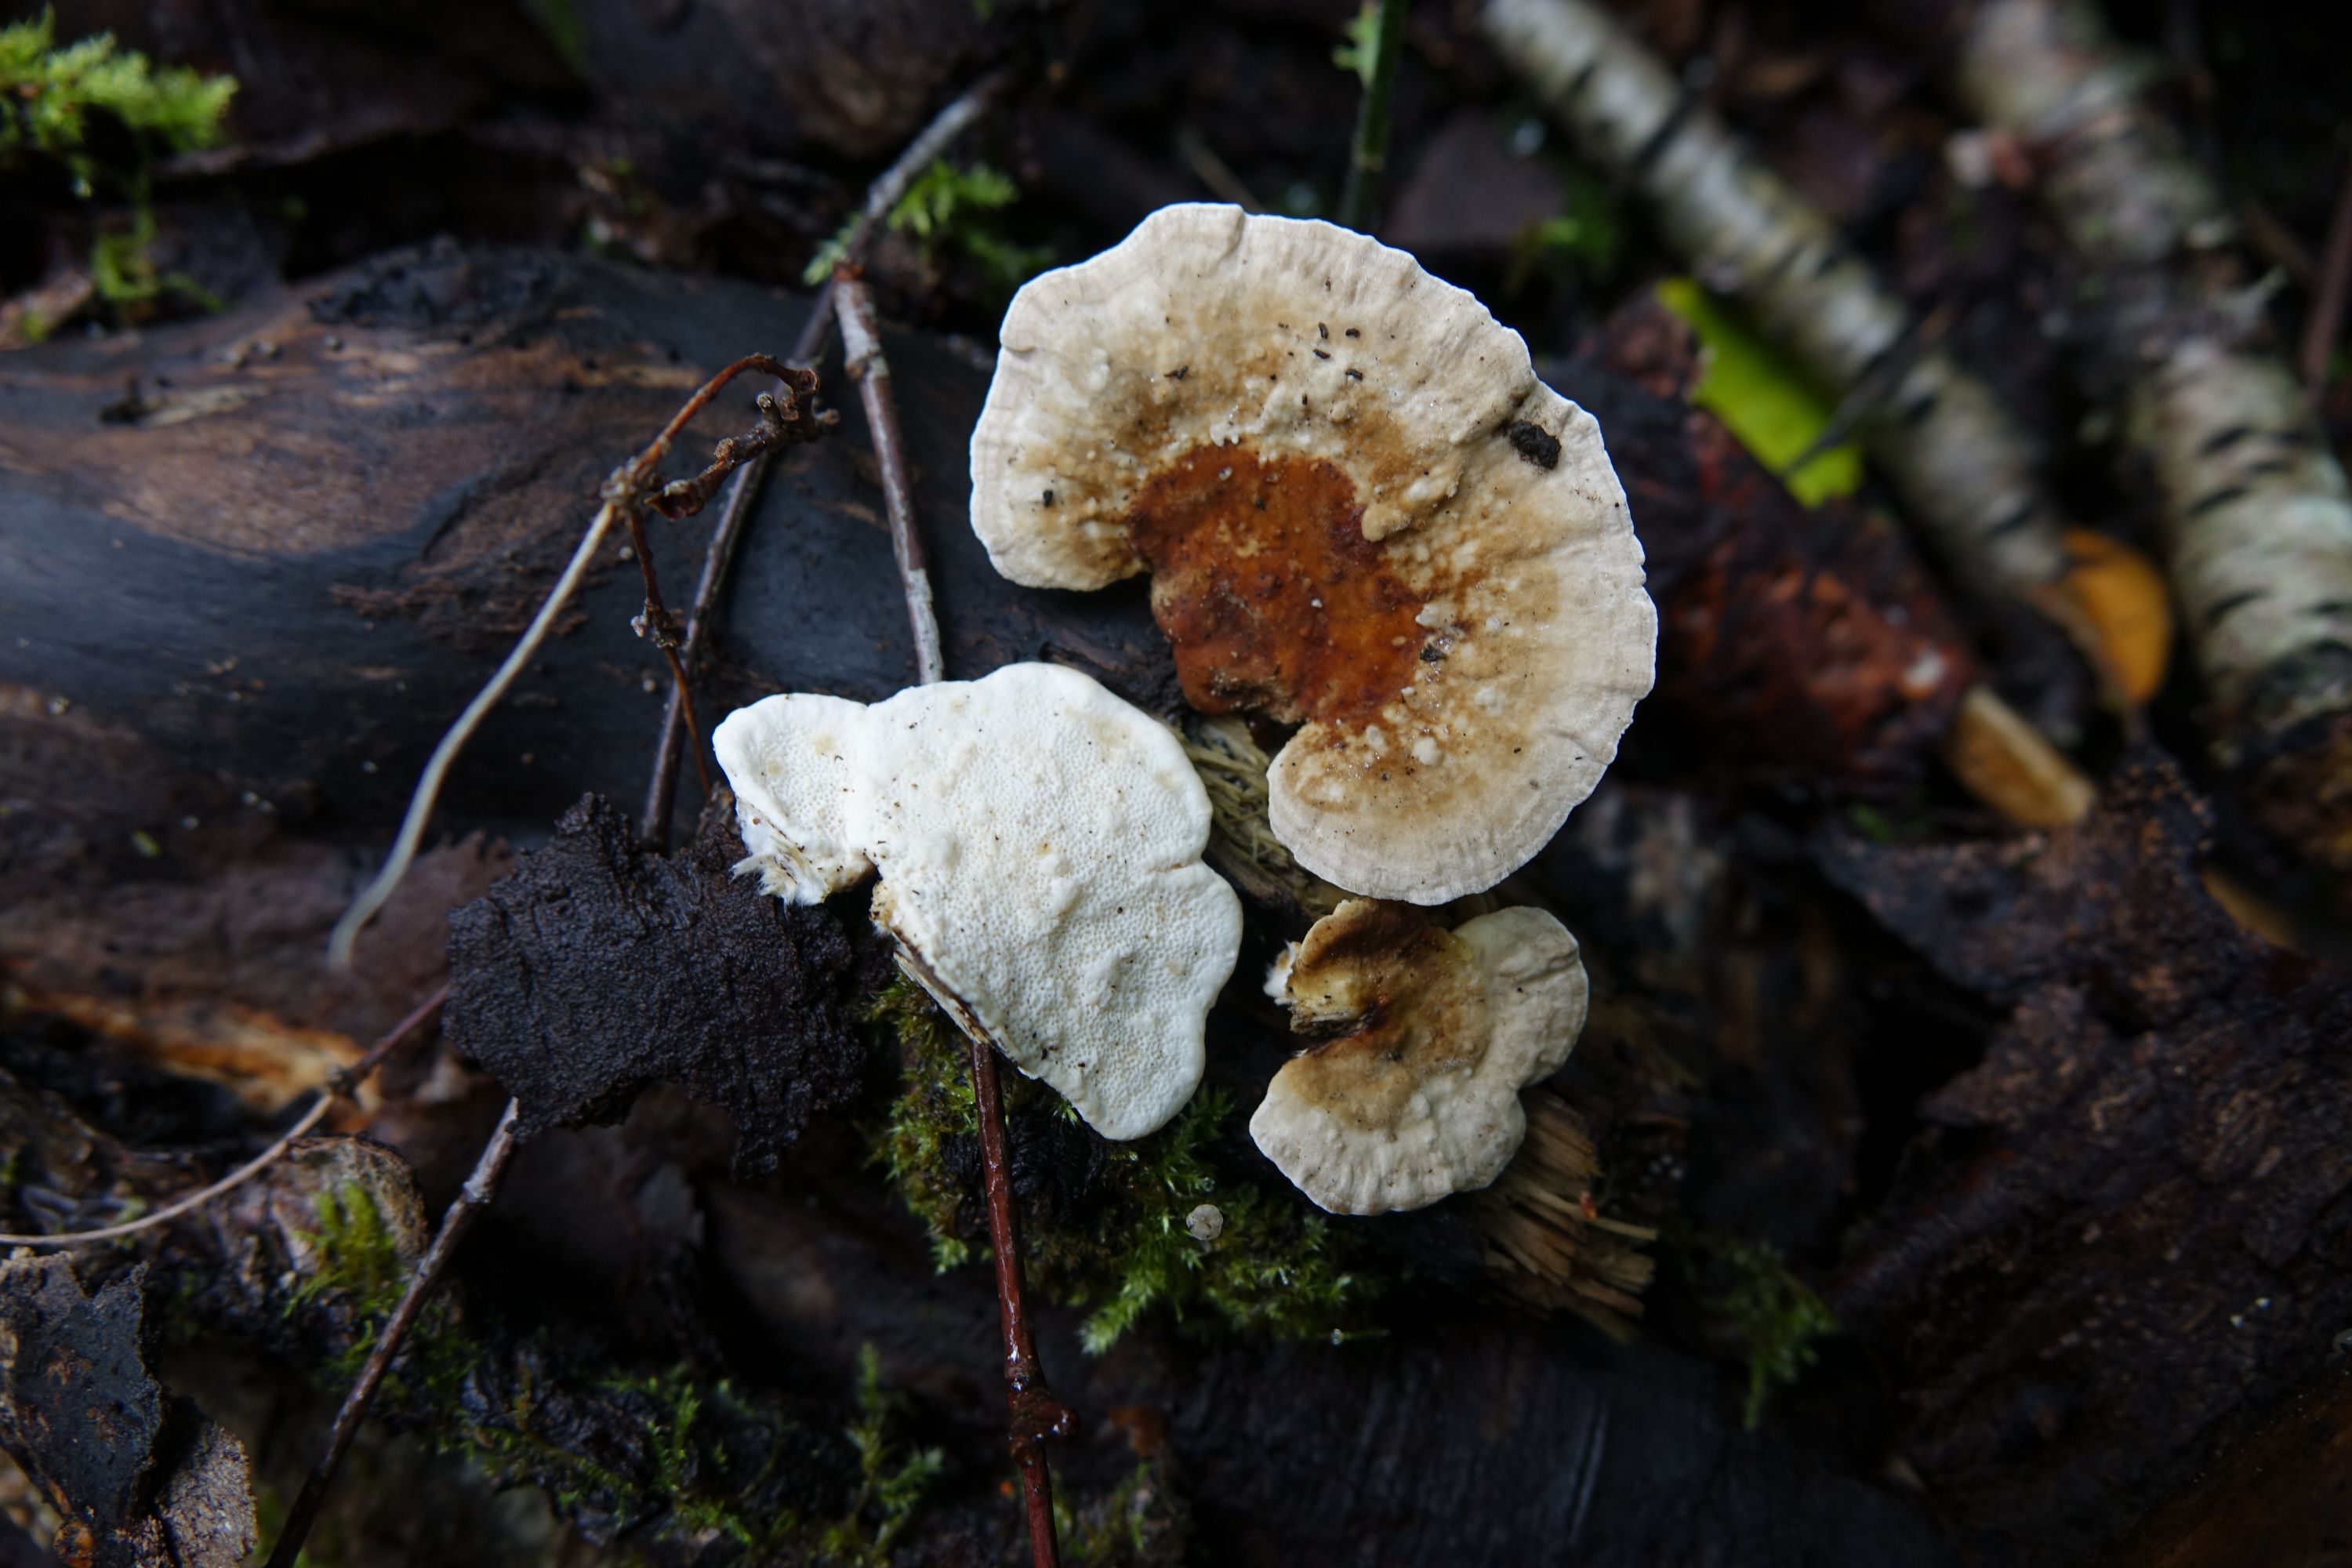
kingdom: Fungi
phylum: Basidiomycota
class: Agaricomycetes
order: Polyporales
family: Polyporaceae
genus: Trametes
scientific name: Trametes ochracea
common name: Ochre bracket
